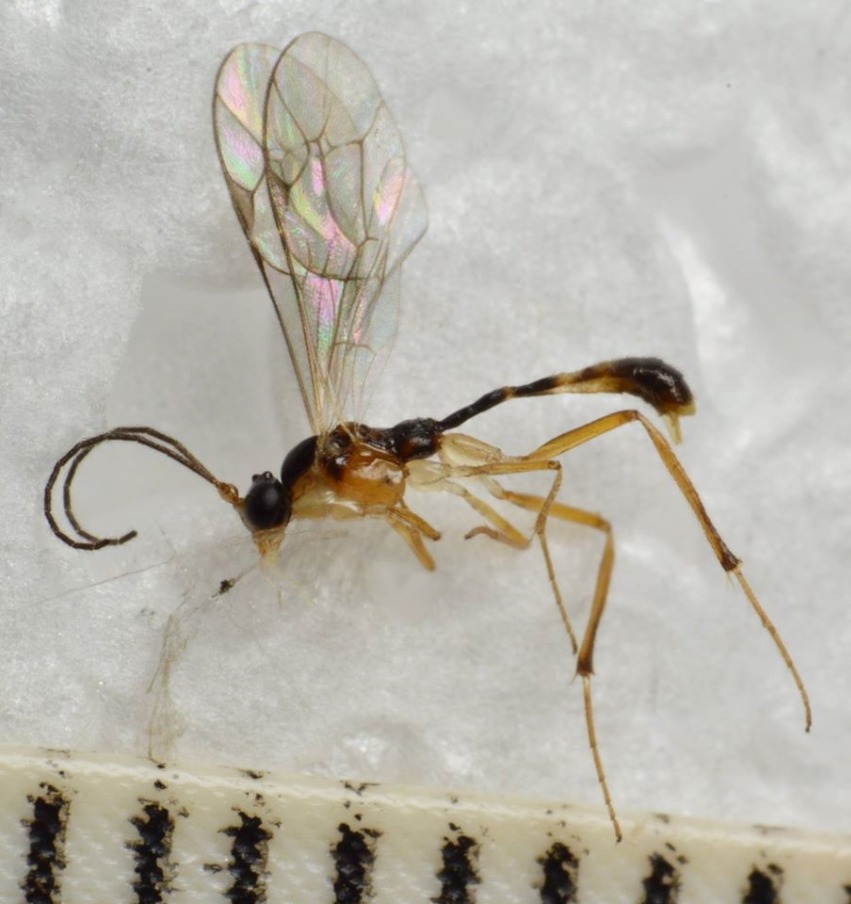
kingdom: Animalia
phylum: Arthropoda
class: Insecta
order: Hymenoptera
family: Ichneumonidae
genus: Megastylus
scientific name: Megastylus pectoralis
